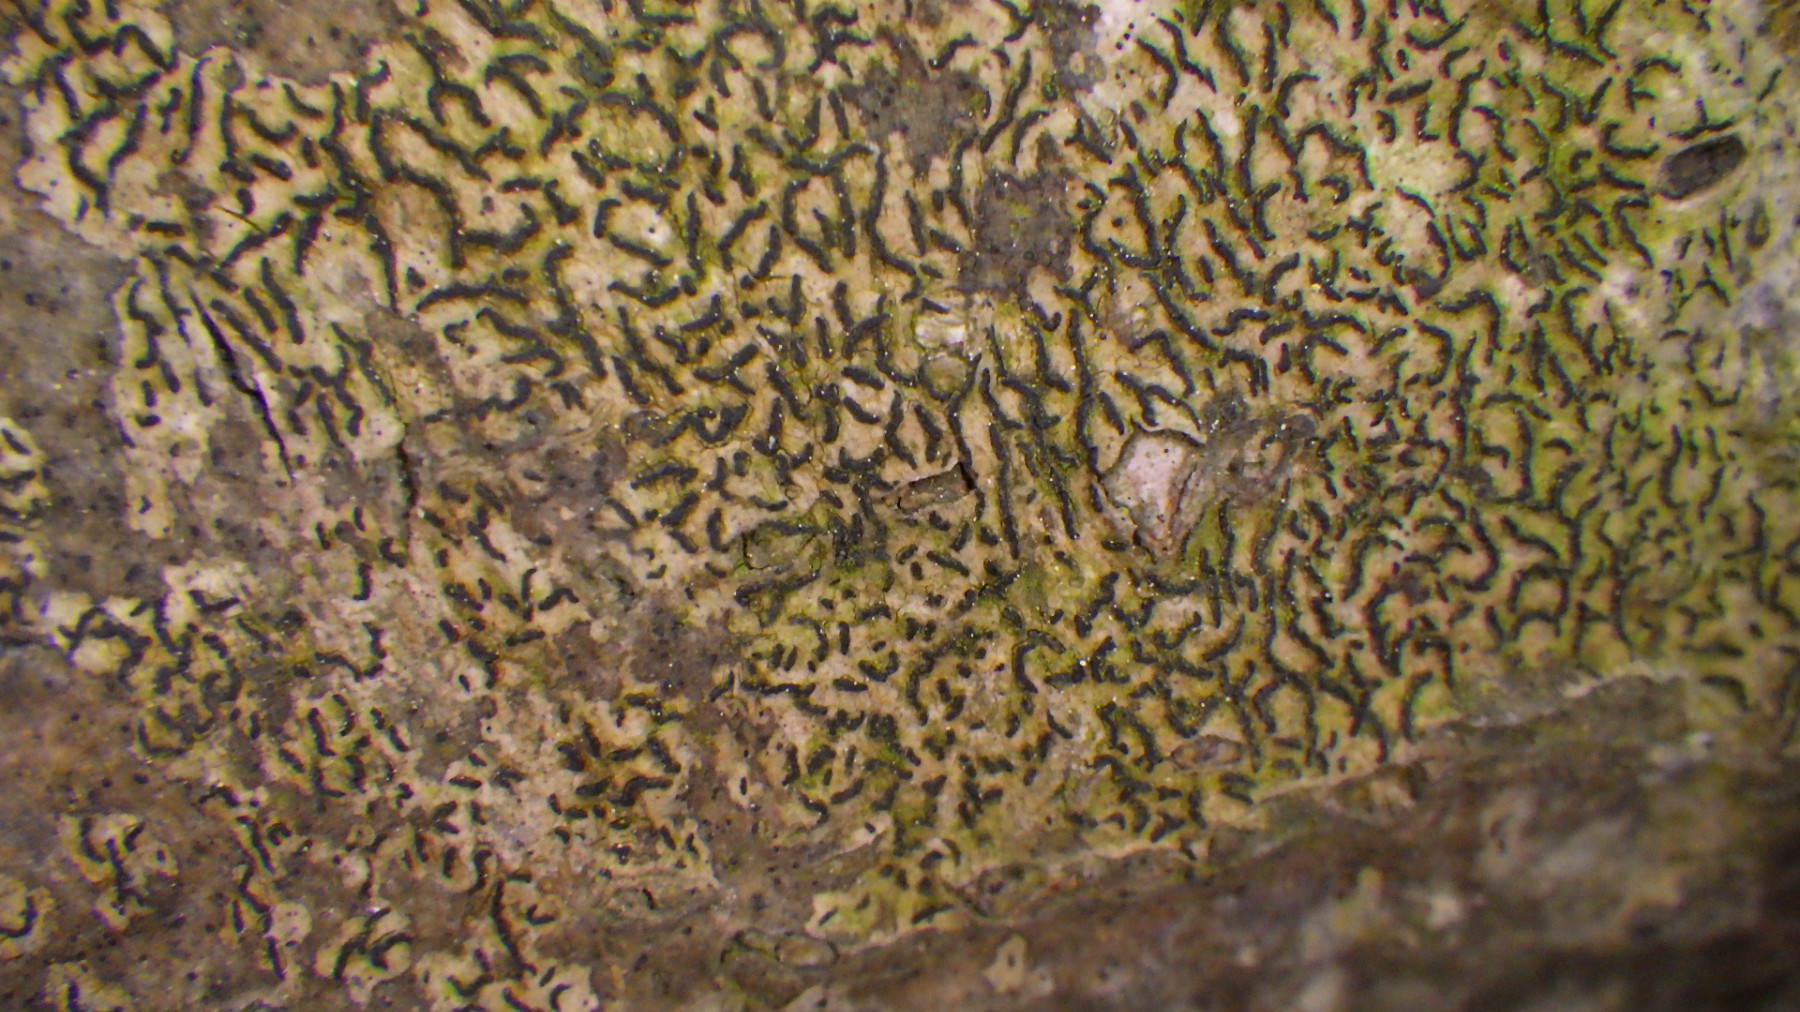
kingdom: Fungi
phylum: Ascomycota
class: Lecanoromycetes
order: Ostropales
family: Graphidaceae
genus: Graphis
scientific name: Graphis scripta
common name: almindelig skriftlav
